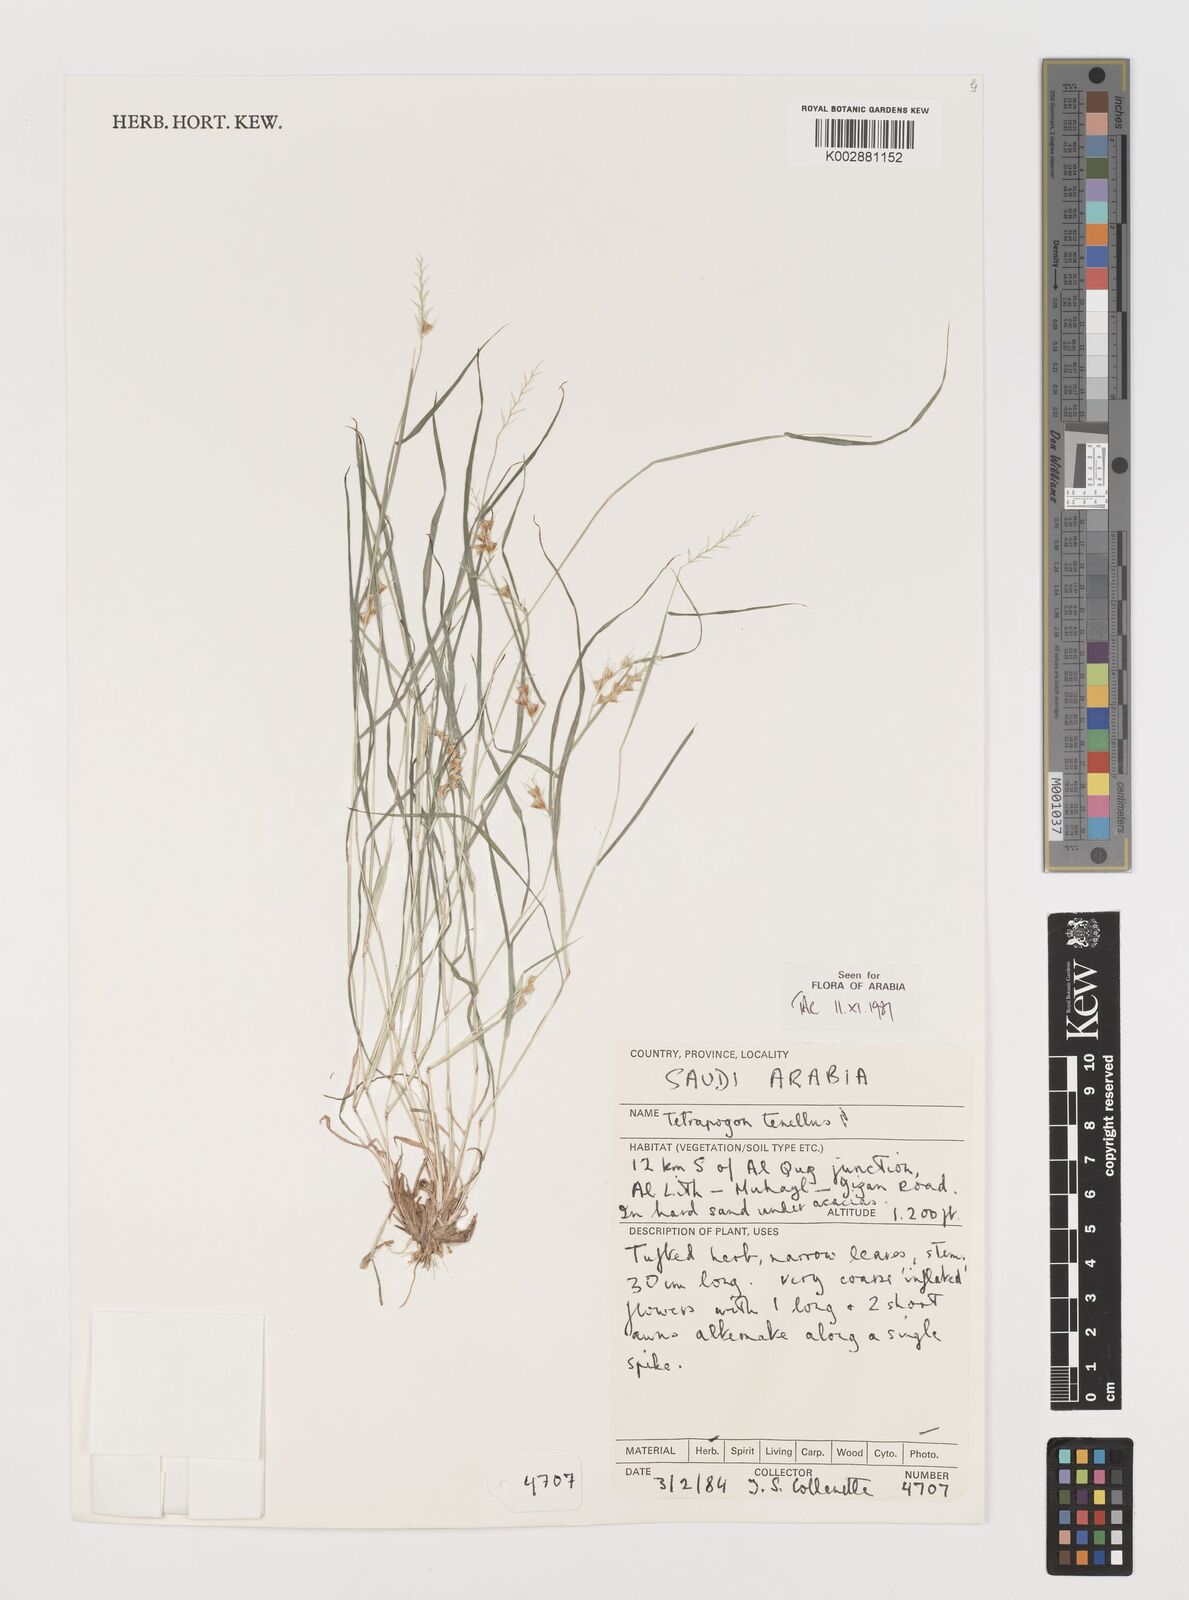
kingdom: Plantae
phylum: Tracheophyta
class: Liliopsida
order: Poales
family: Poaceae
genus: Tetrapogon
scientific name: Tetrapogon tenellus
